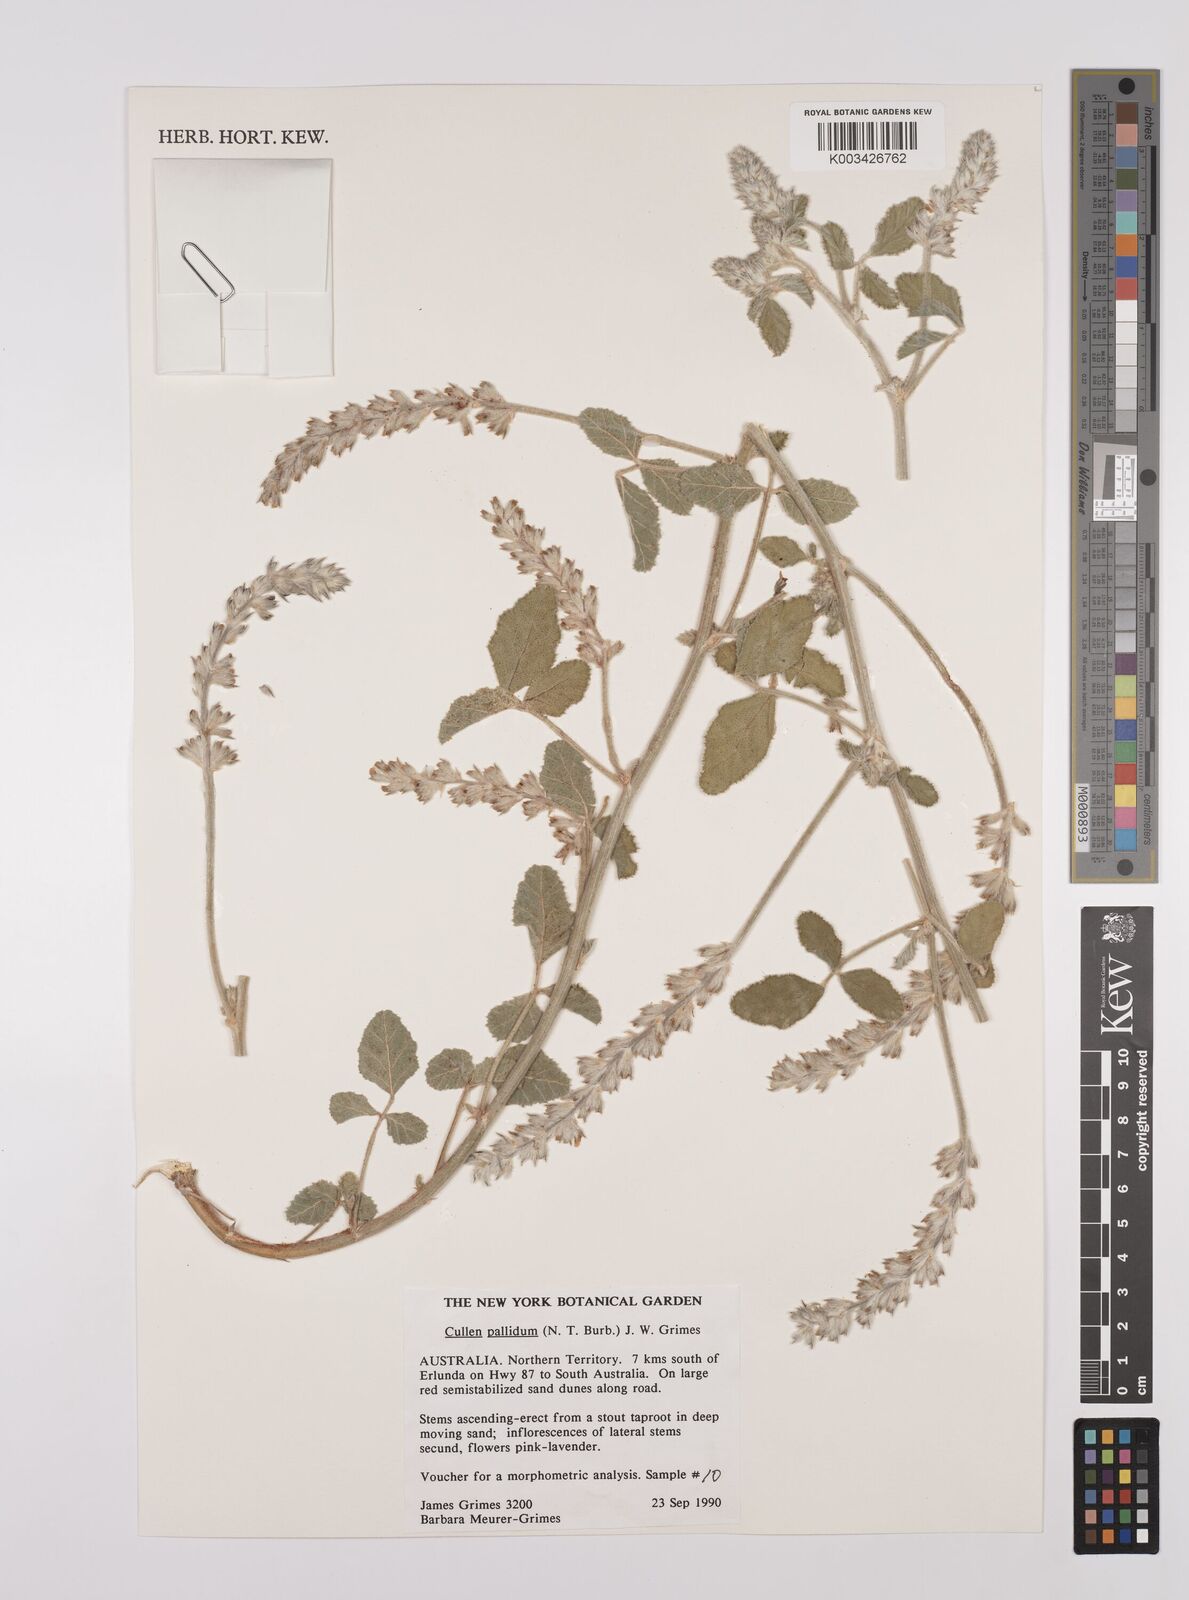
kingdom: Plantae
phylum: Tracheophyta
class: Magnoliopsida
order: Fabales
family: Fabaceae
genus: Cullen
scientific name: Cullen pallidum
